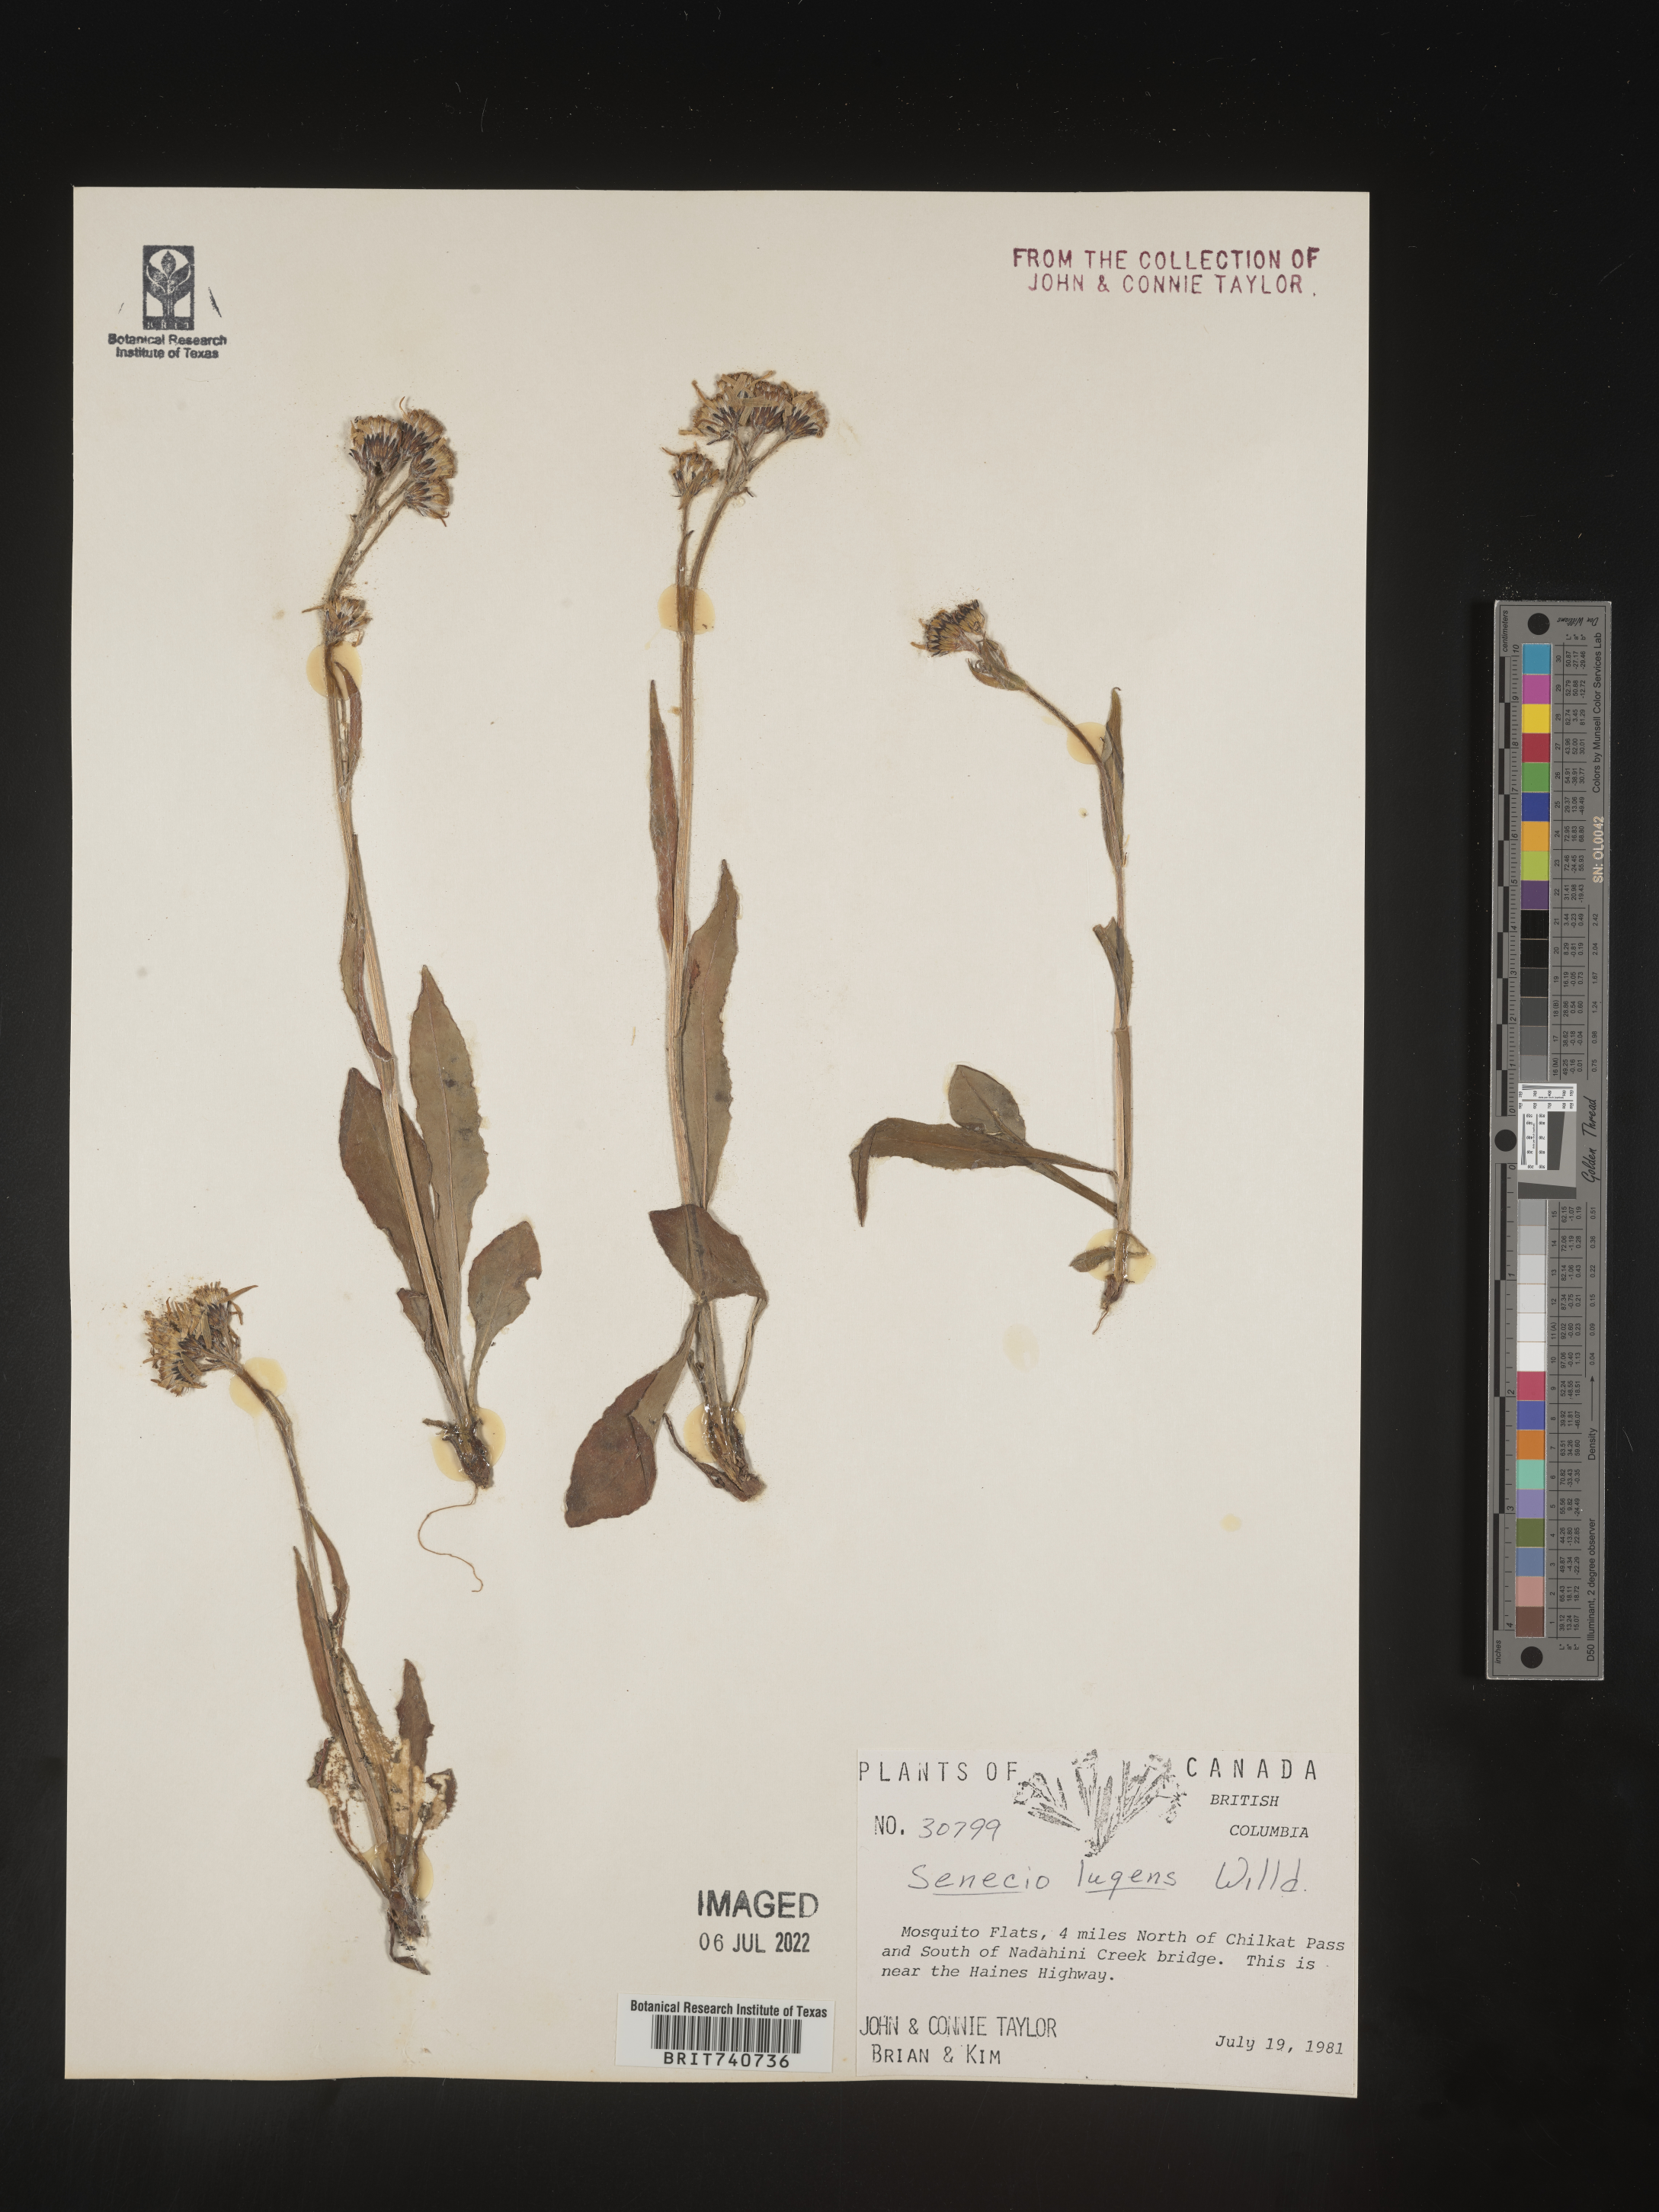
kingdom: Plantae
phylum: Tracheophyta
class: Magnoliopsida
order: Asterales
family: Asteraceae
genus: Senecio
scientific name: Senecio lugens
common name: Black-tip groundsel
